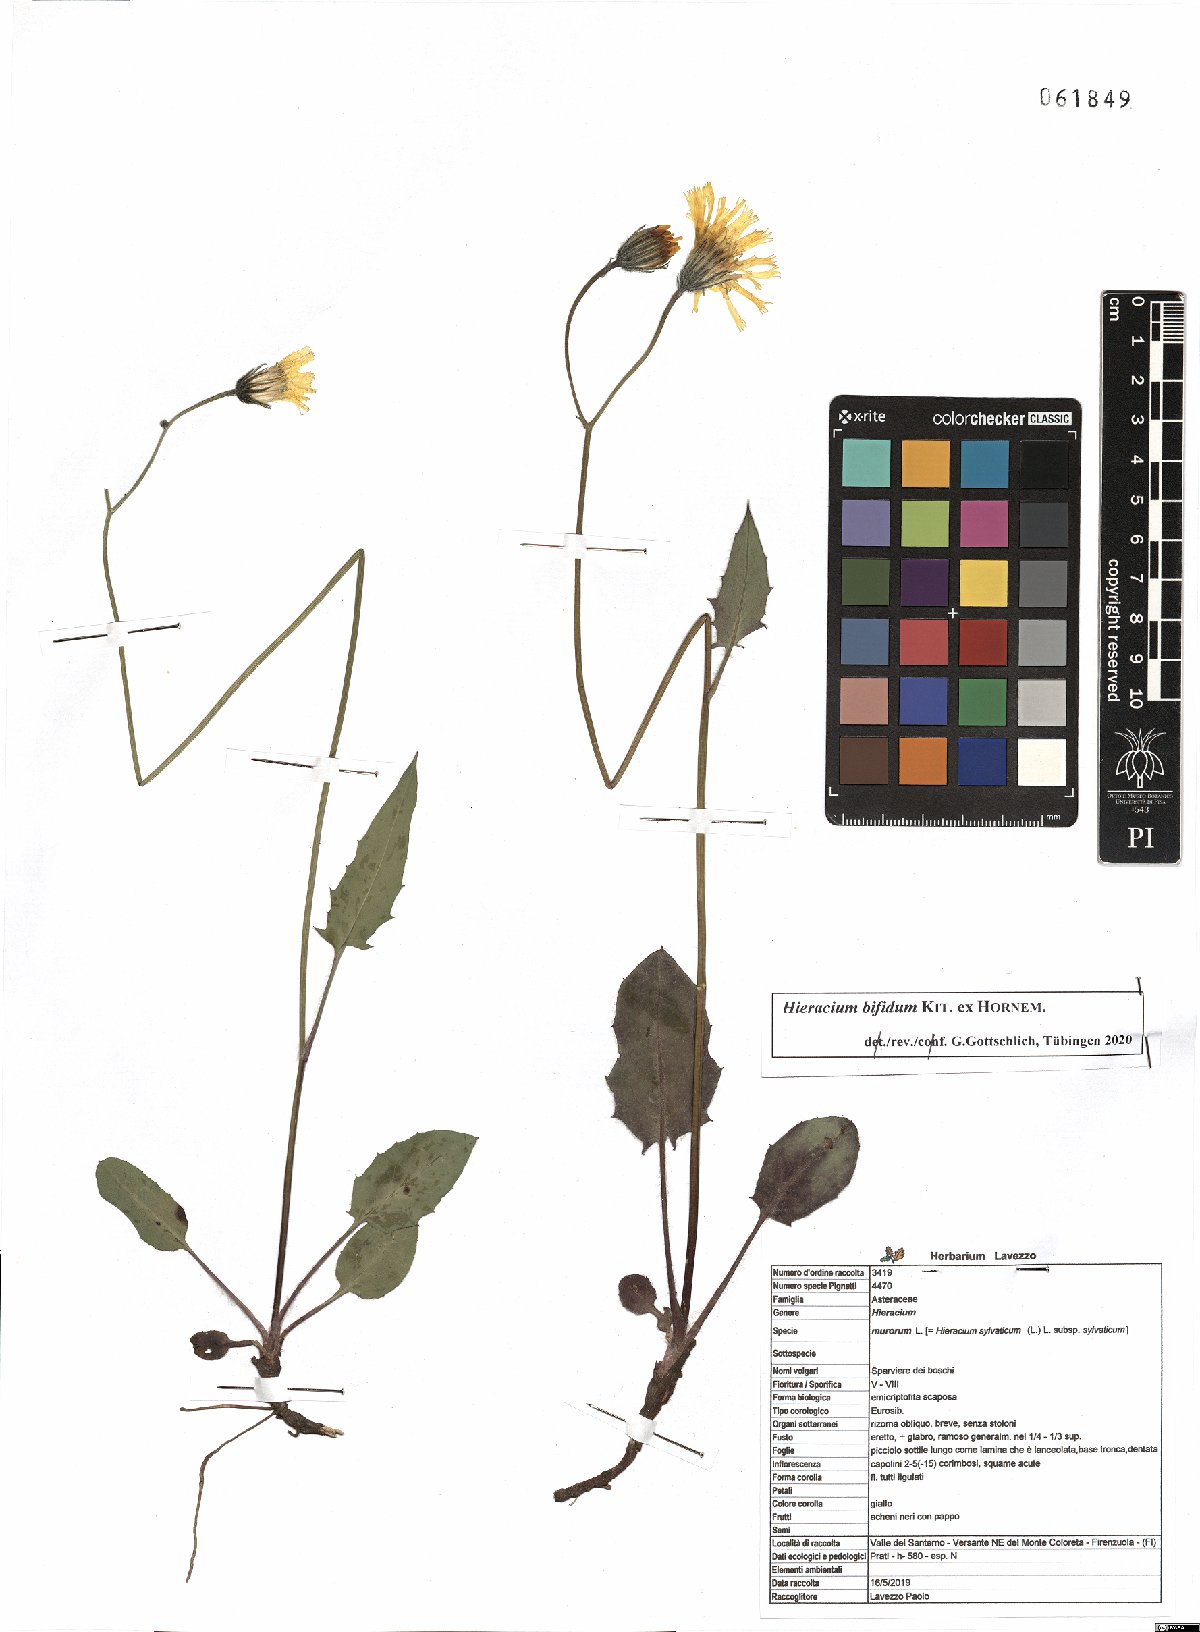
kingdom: Plantae
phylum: Tracheophyta
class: Magnoliopsida
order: Asterales
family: Asteraceae
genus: Hieracium
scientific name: Hieracium bifidum
